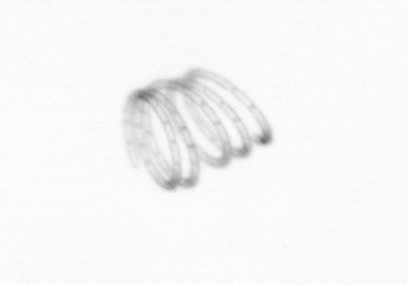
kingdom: Chromista
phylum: Ochrophyta
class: Bacillariophyceae
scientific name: Bacillariophyceae
